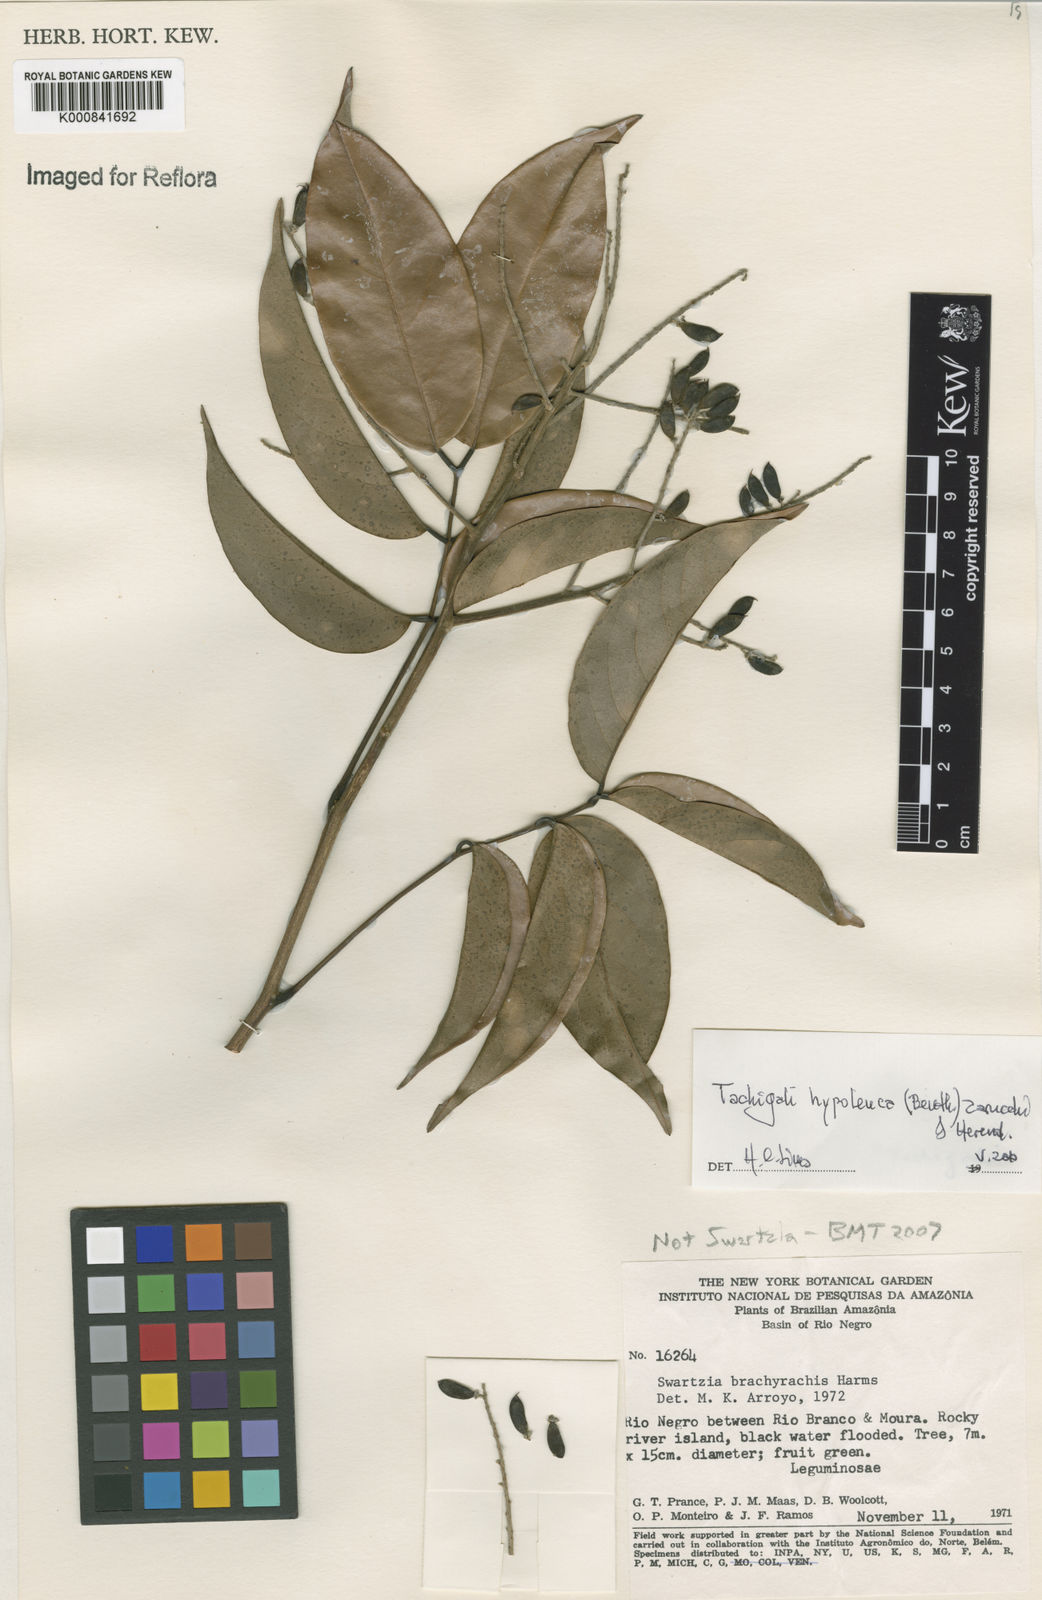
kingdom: Plantae
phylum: Tracheophyta
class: Magnoliopsida
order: Fabales
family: Fabaceae
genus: Tachigali
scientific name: Tachigali hypoleuca
